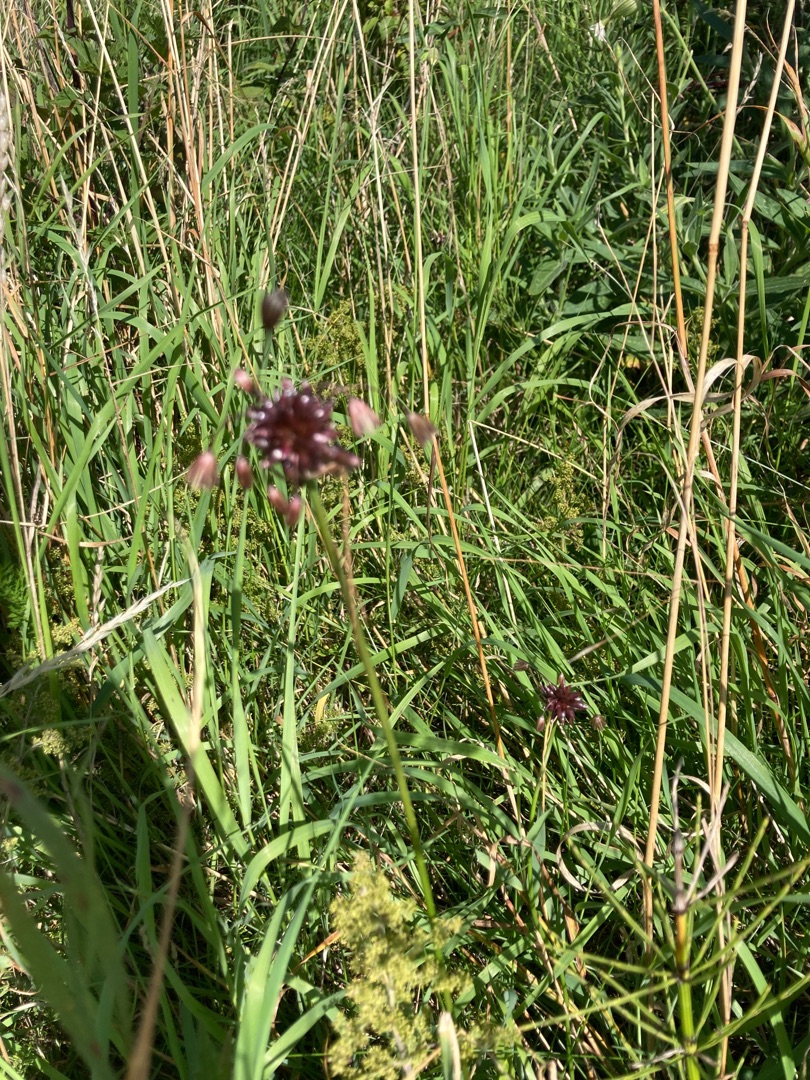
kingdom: Plantae
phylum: Tracheophyta
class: Liliopsida
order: Asparagales
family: Amaryllidaceae
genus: Allium
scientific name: Allium oleraceum
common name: Vild løg
